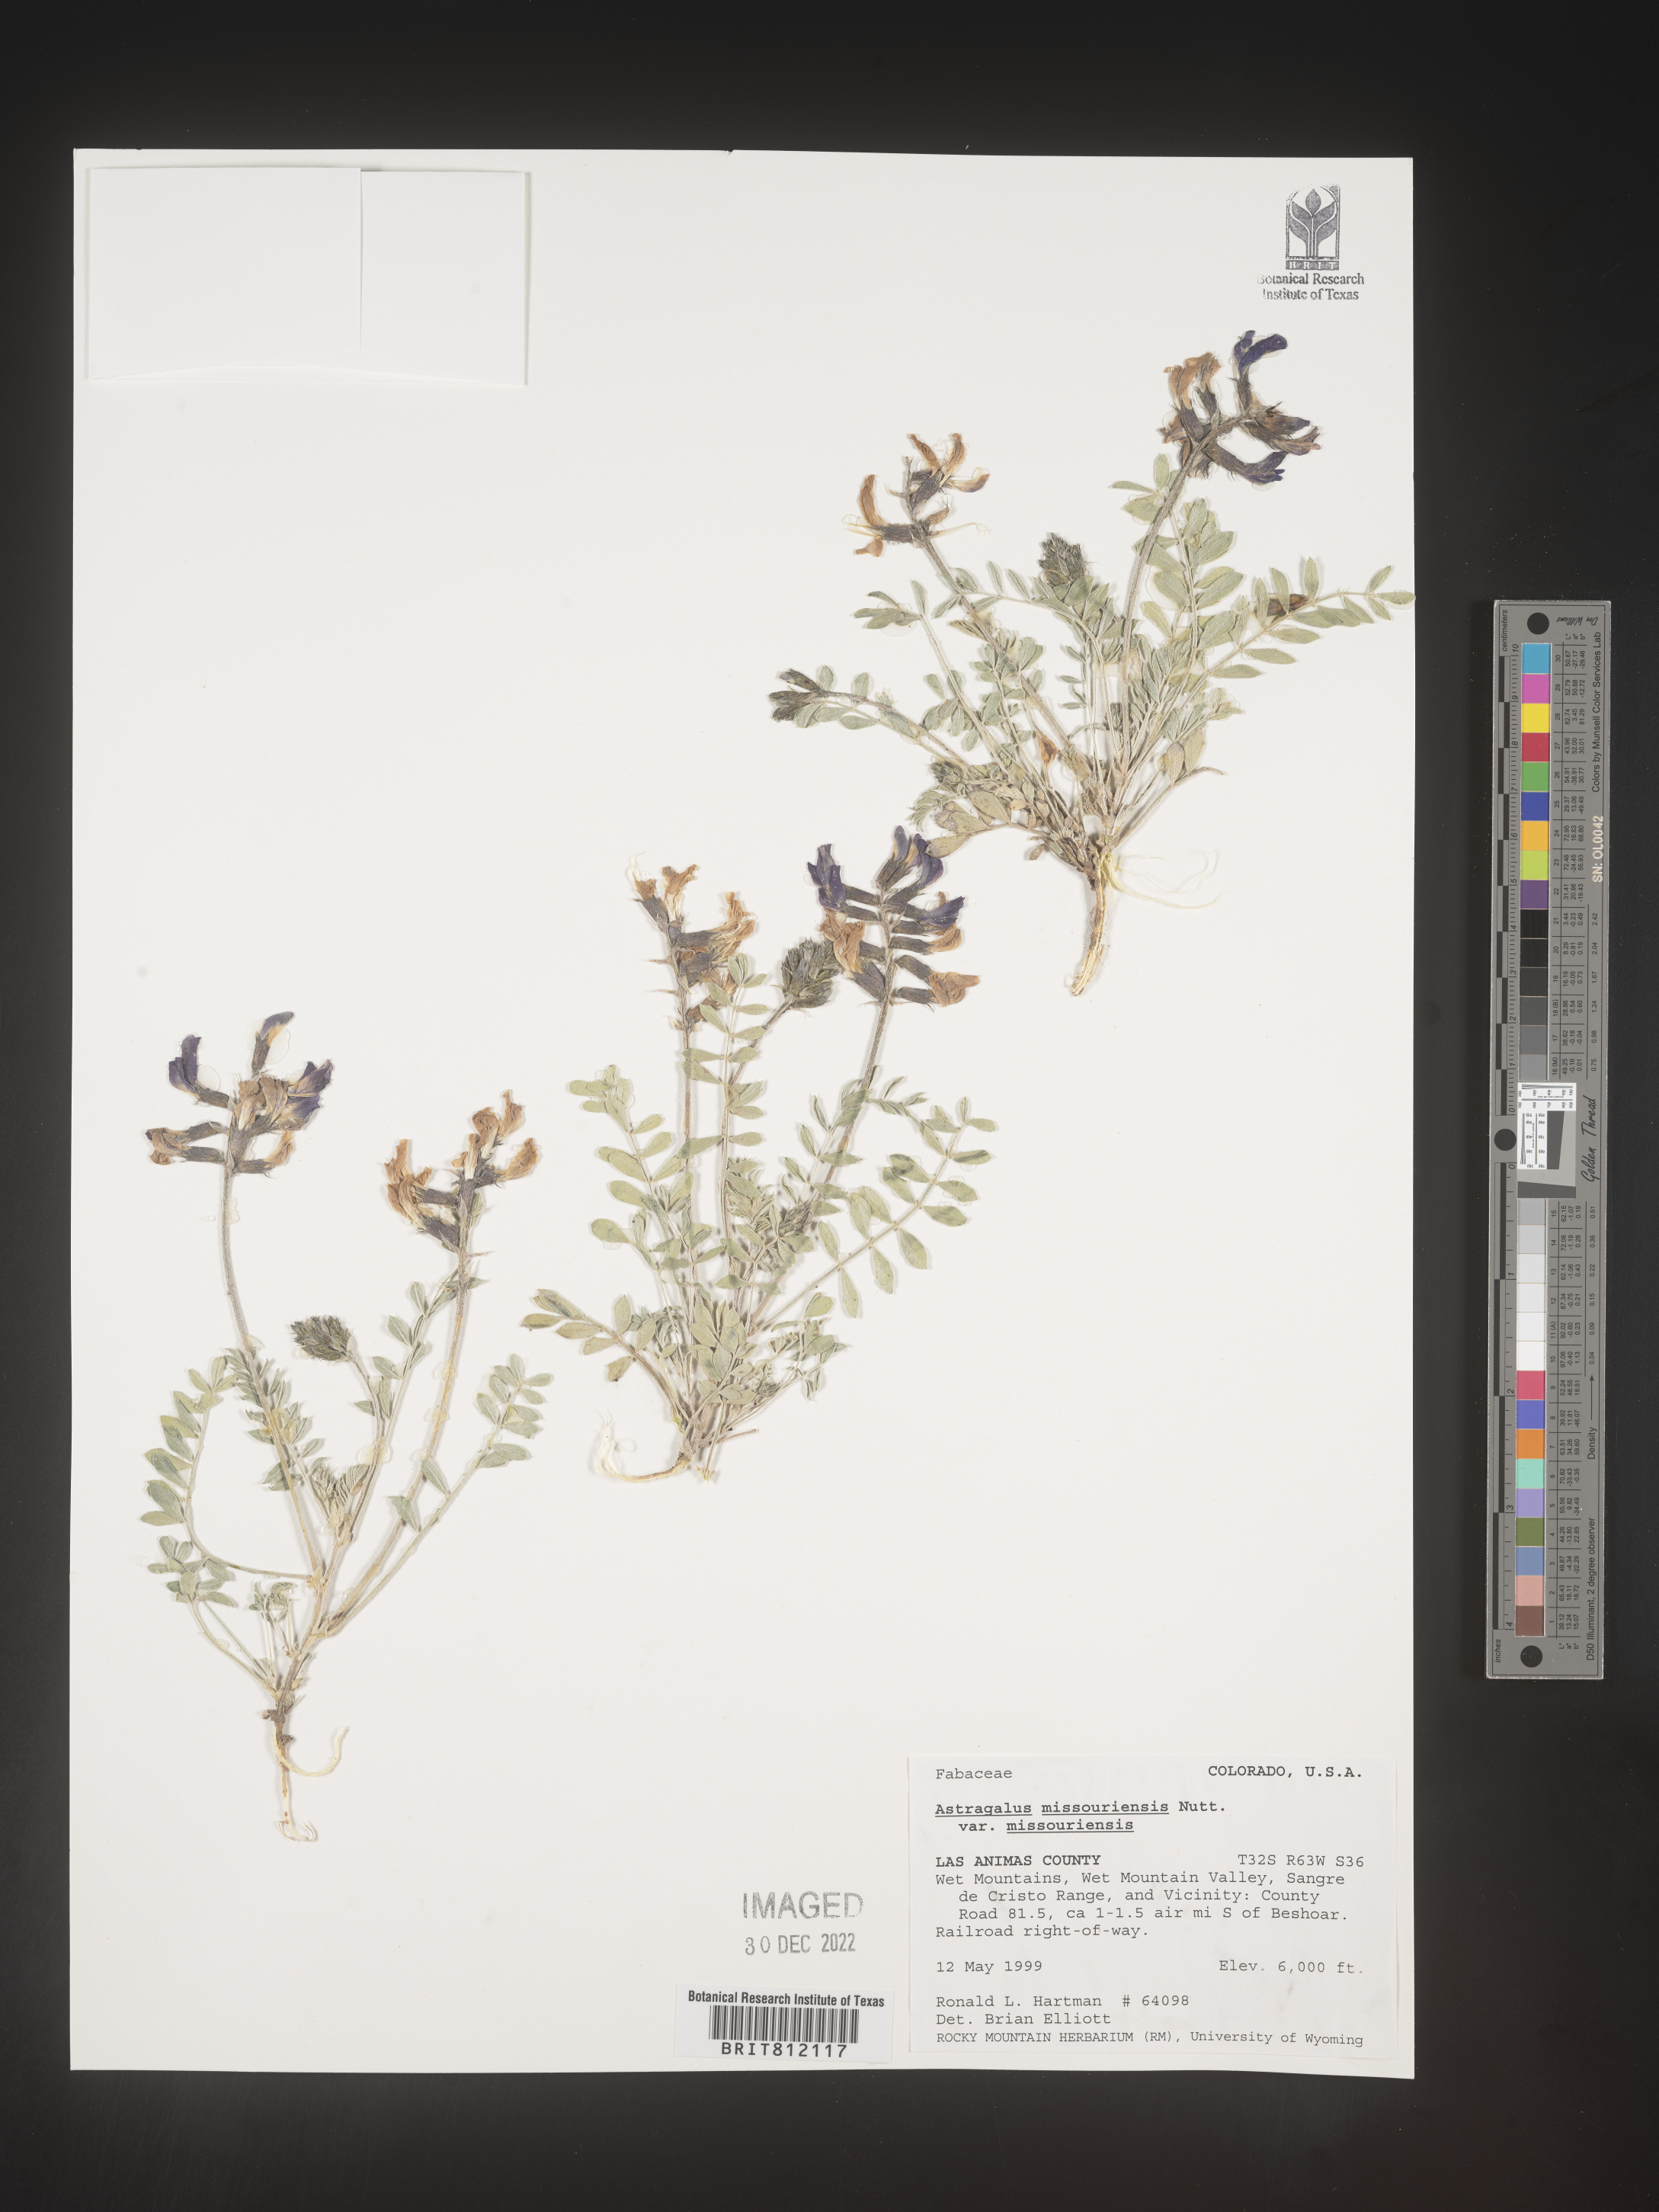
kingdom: Plantae
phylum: Tracheophyta
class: Magnoliopsida
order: Fabales
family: Fabaceae
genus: Astragalus
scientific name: Astragalus missouriensis
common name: Missouri milk-vetch
